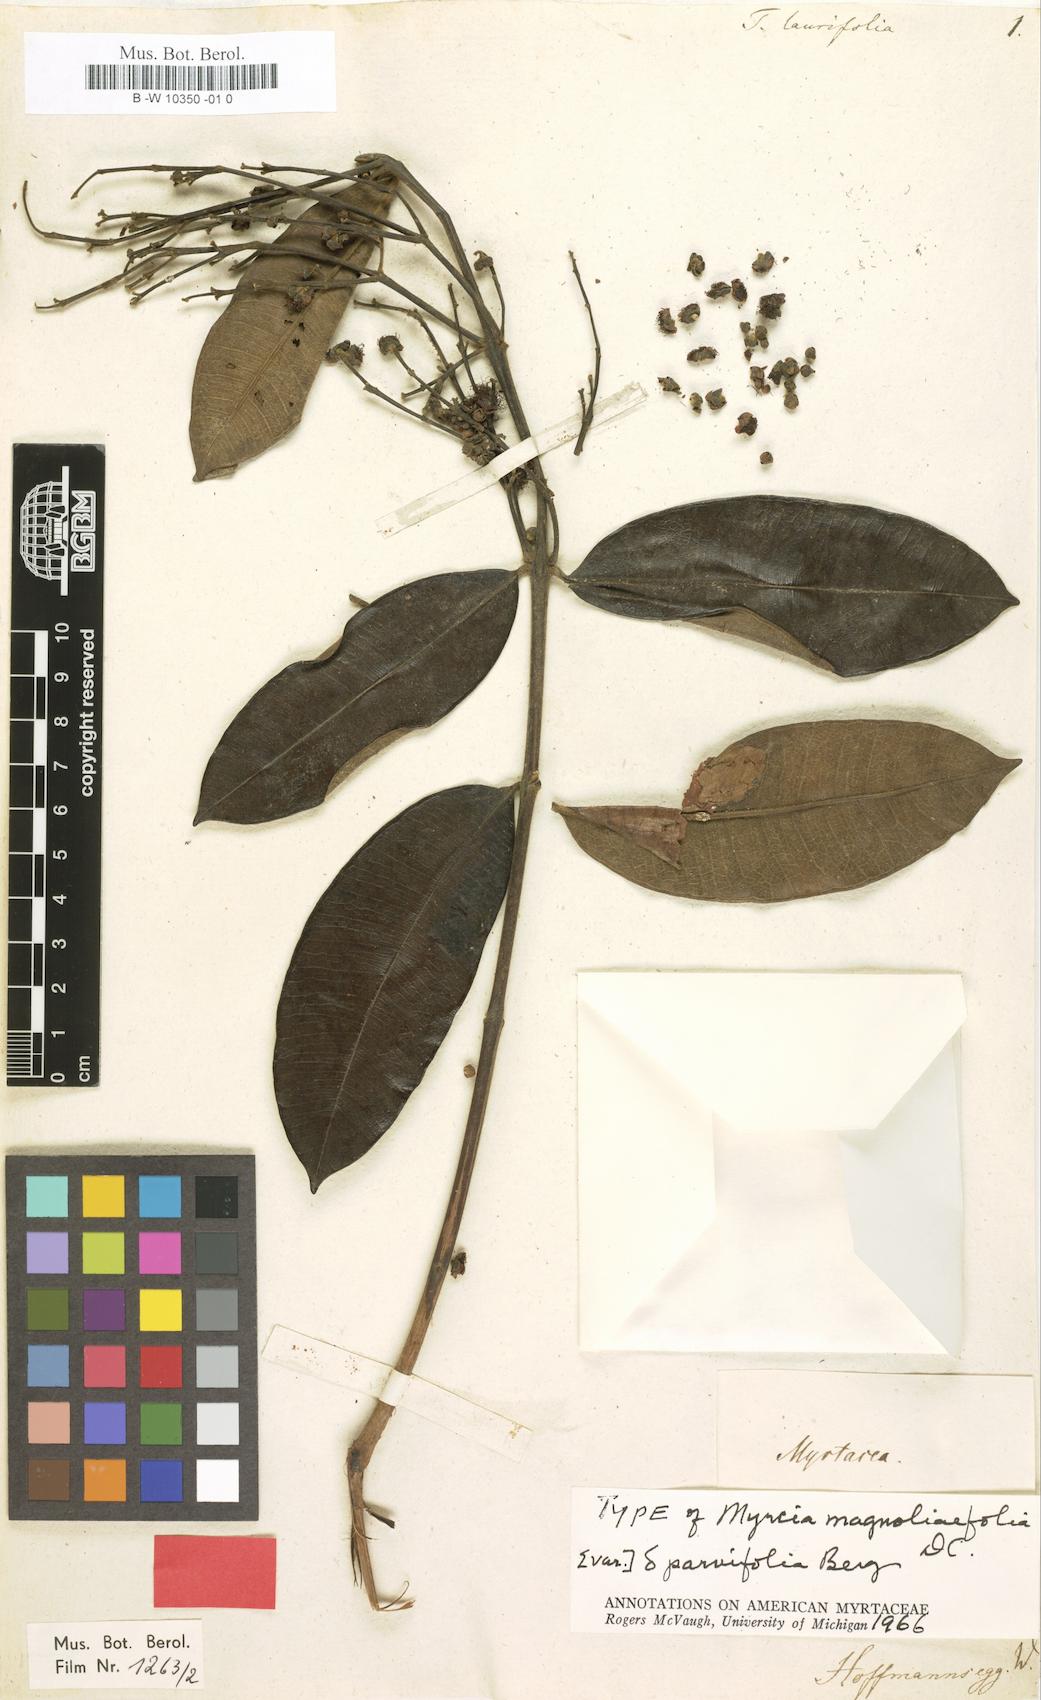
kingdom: Plantae
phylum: Tracheophyta
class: Magnoliopsida
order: Myrtales
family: Myrtaceae
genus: Myrcia
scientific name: Myrcia splendens
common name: Surinam cherry
